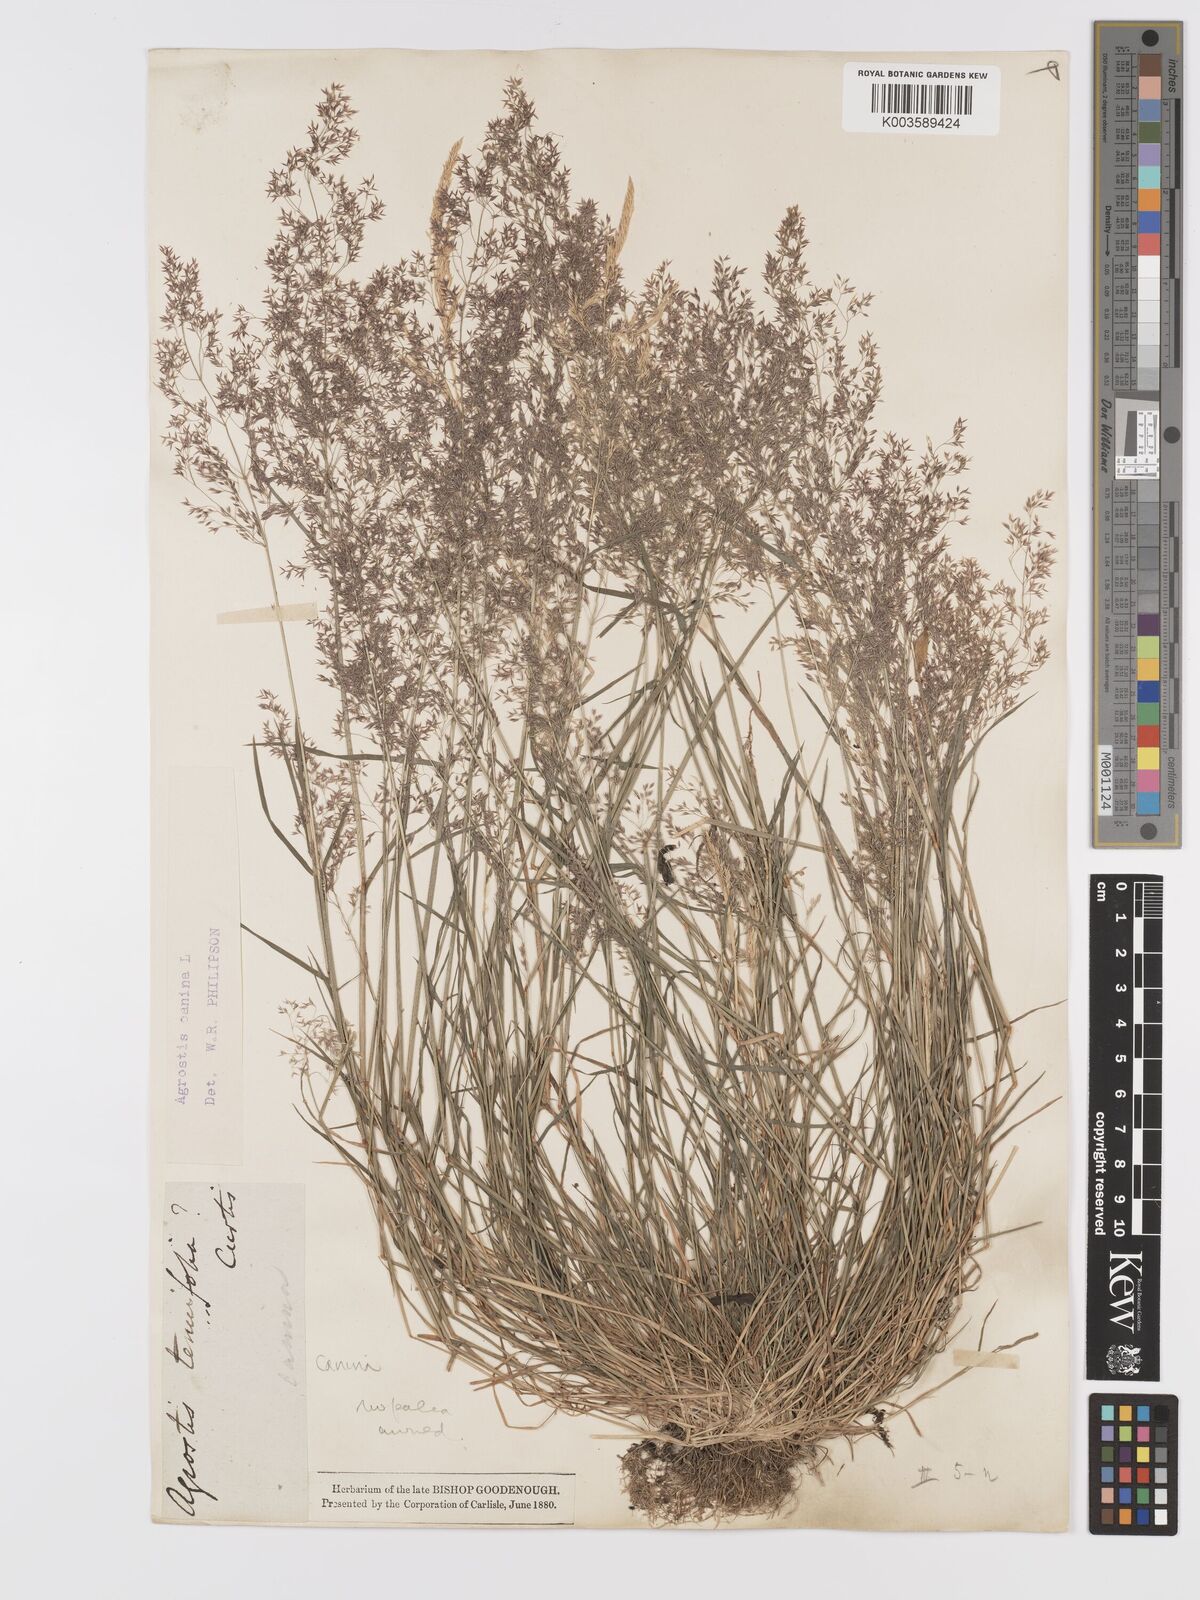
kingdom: Plantae
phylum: Tracheophyta
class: Liliopsida
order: Poales
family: Poaceae
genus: Agrostis
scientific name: Agrostis canina
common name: Velvet bent
